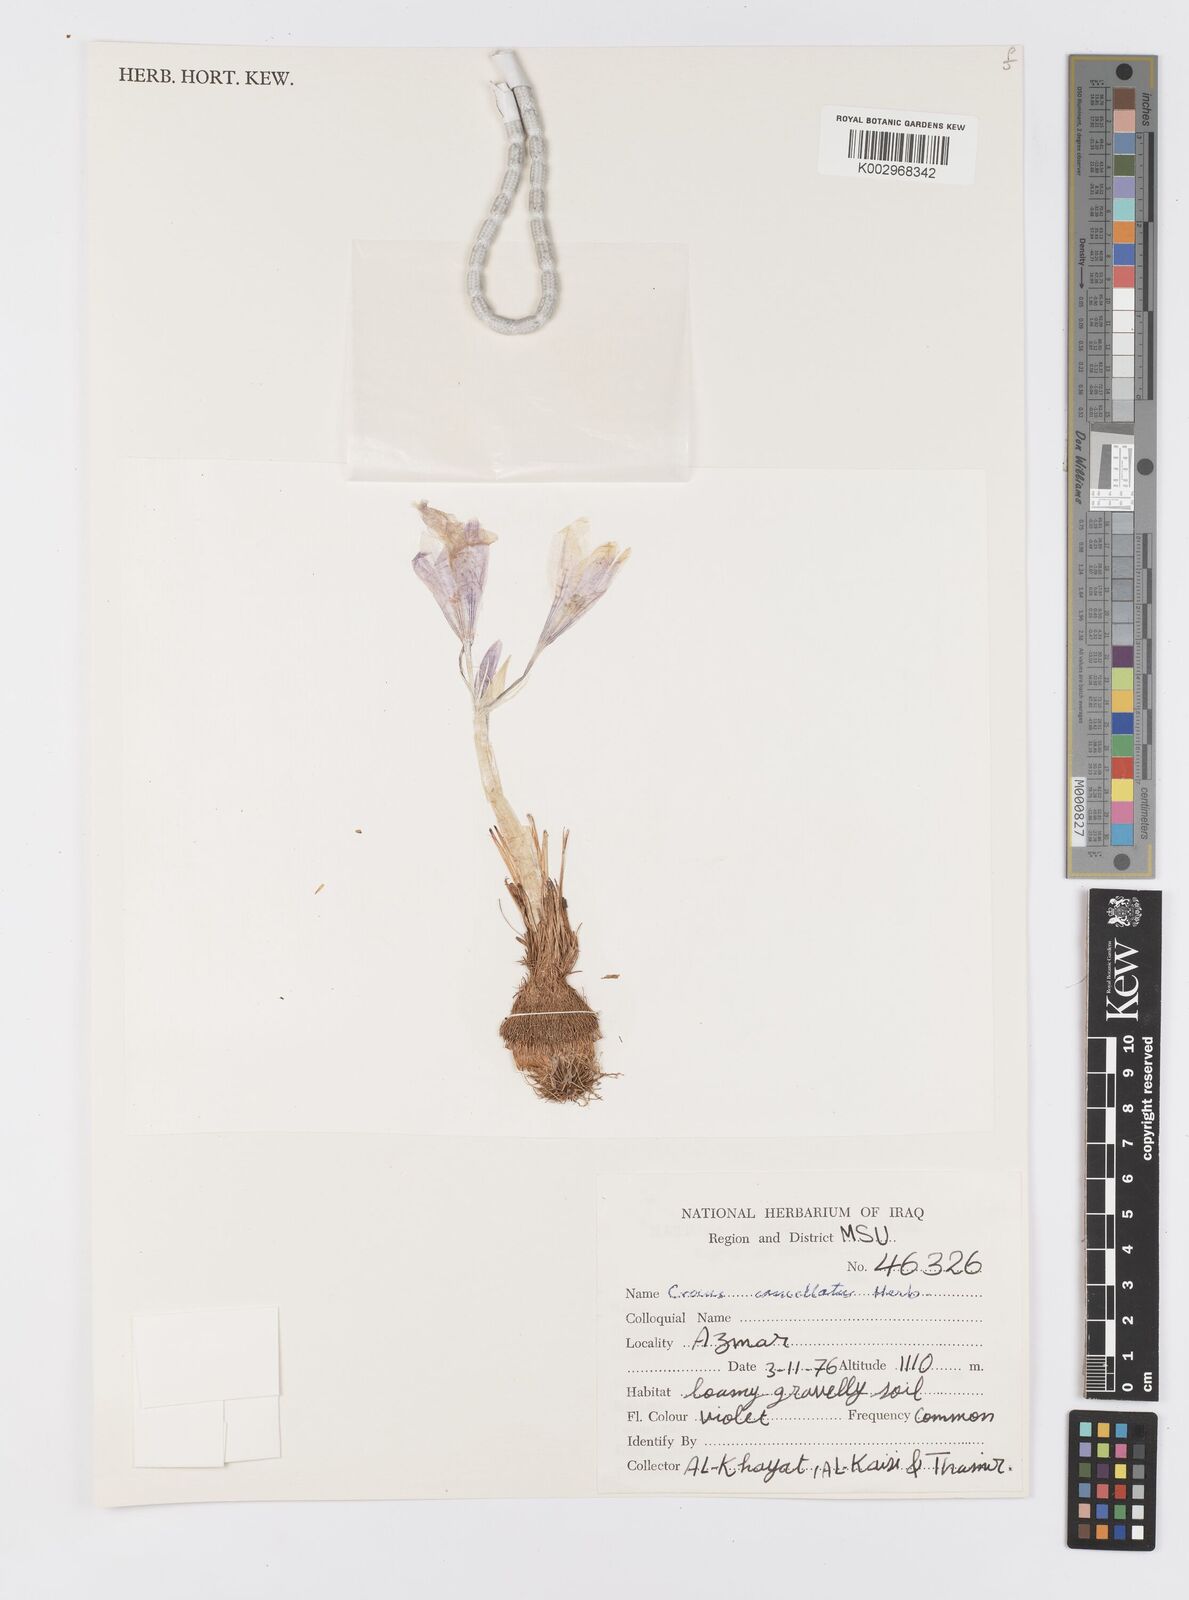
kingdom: Plantae
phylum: Tracheophyta
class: Liliopsida
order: Asparagales
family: Iridaceae
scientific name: Iridaceae
